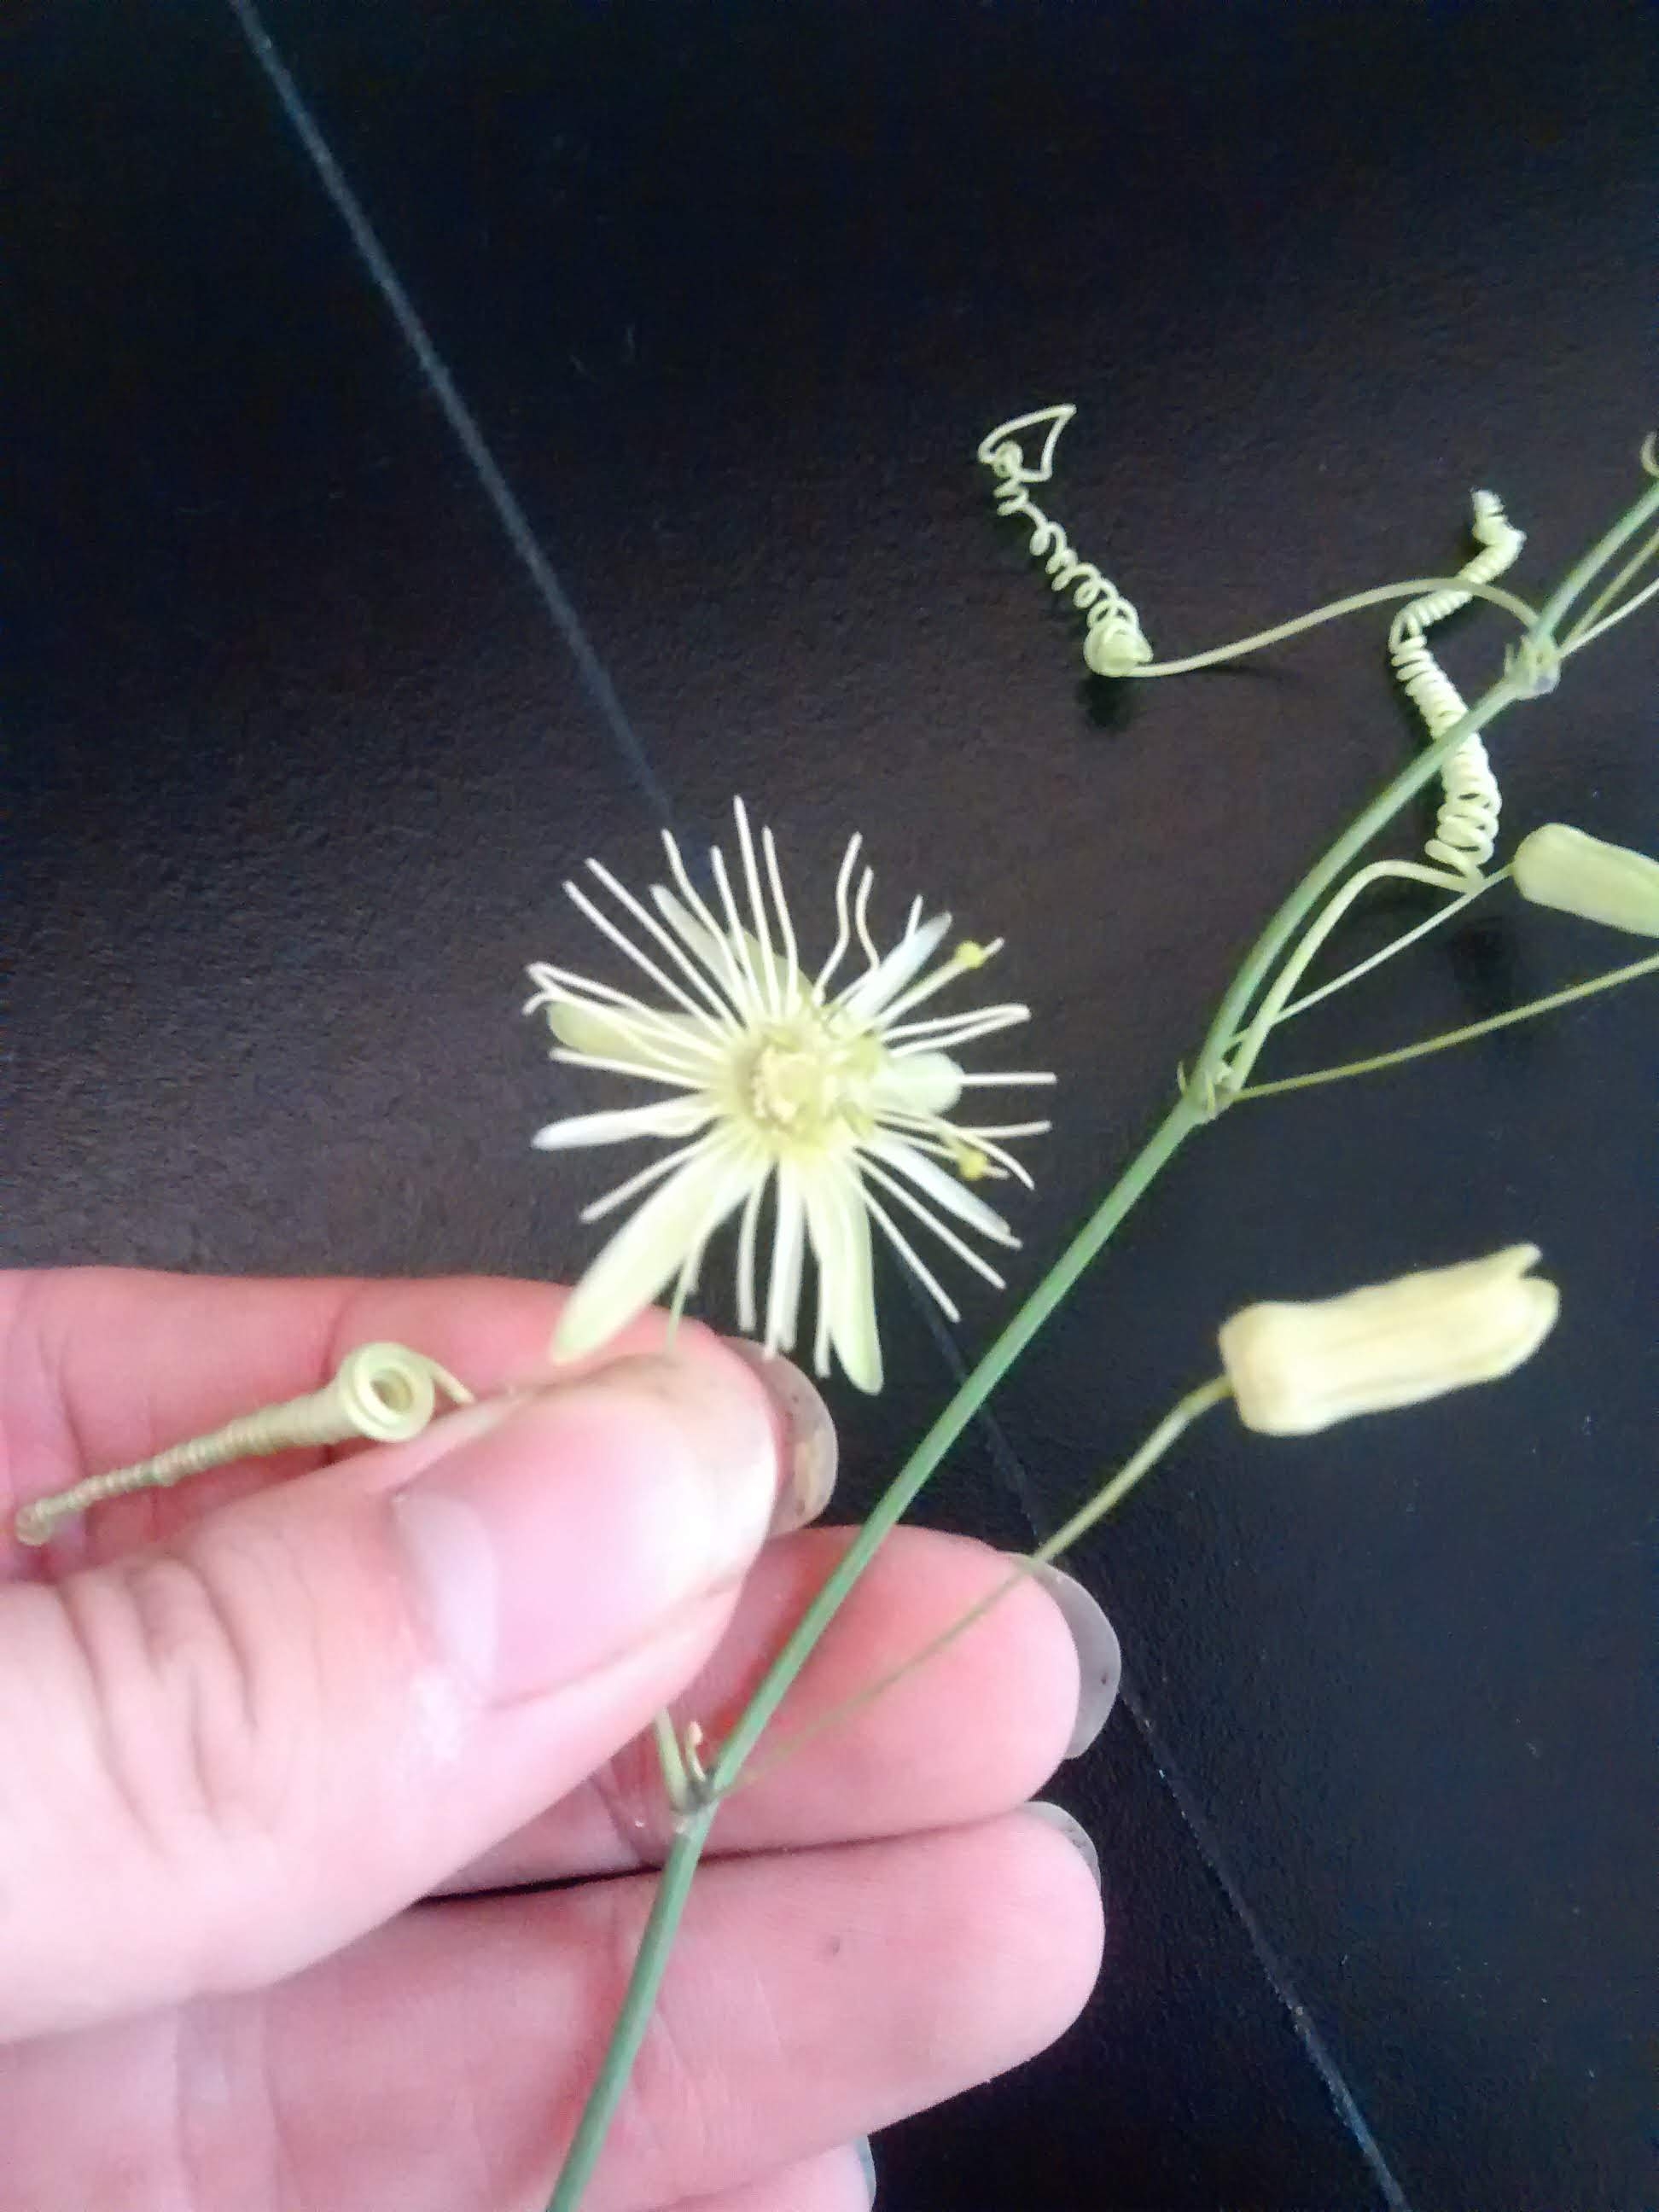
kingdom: Plantae
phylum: Tracheophyta
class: Magnoliopsida
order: Malpighiales
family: Passifloraceae
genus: Passiflora
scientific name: Passiflora lutea
